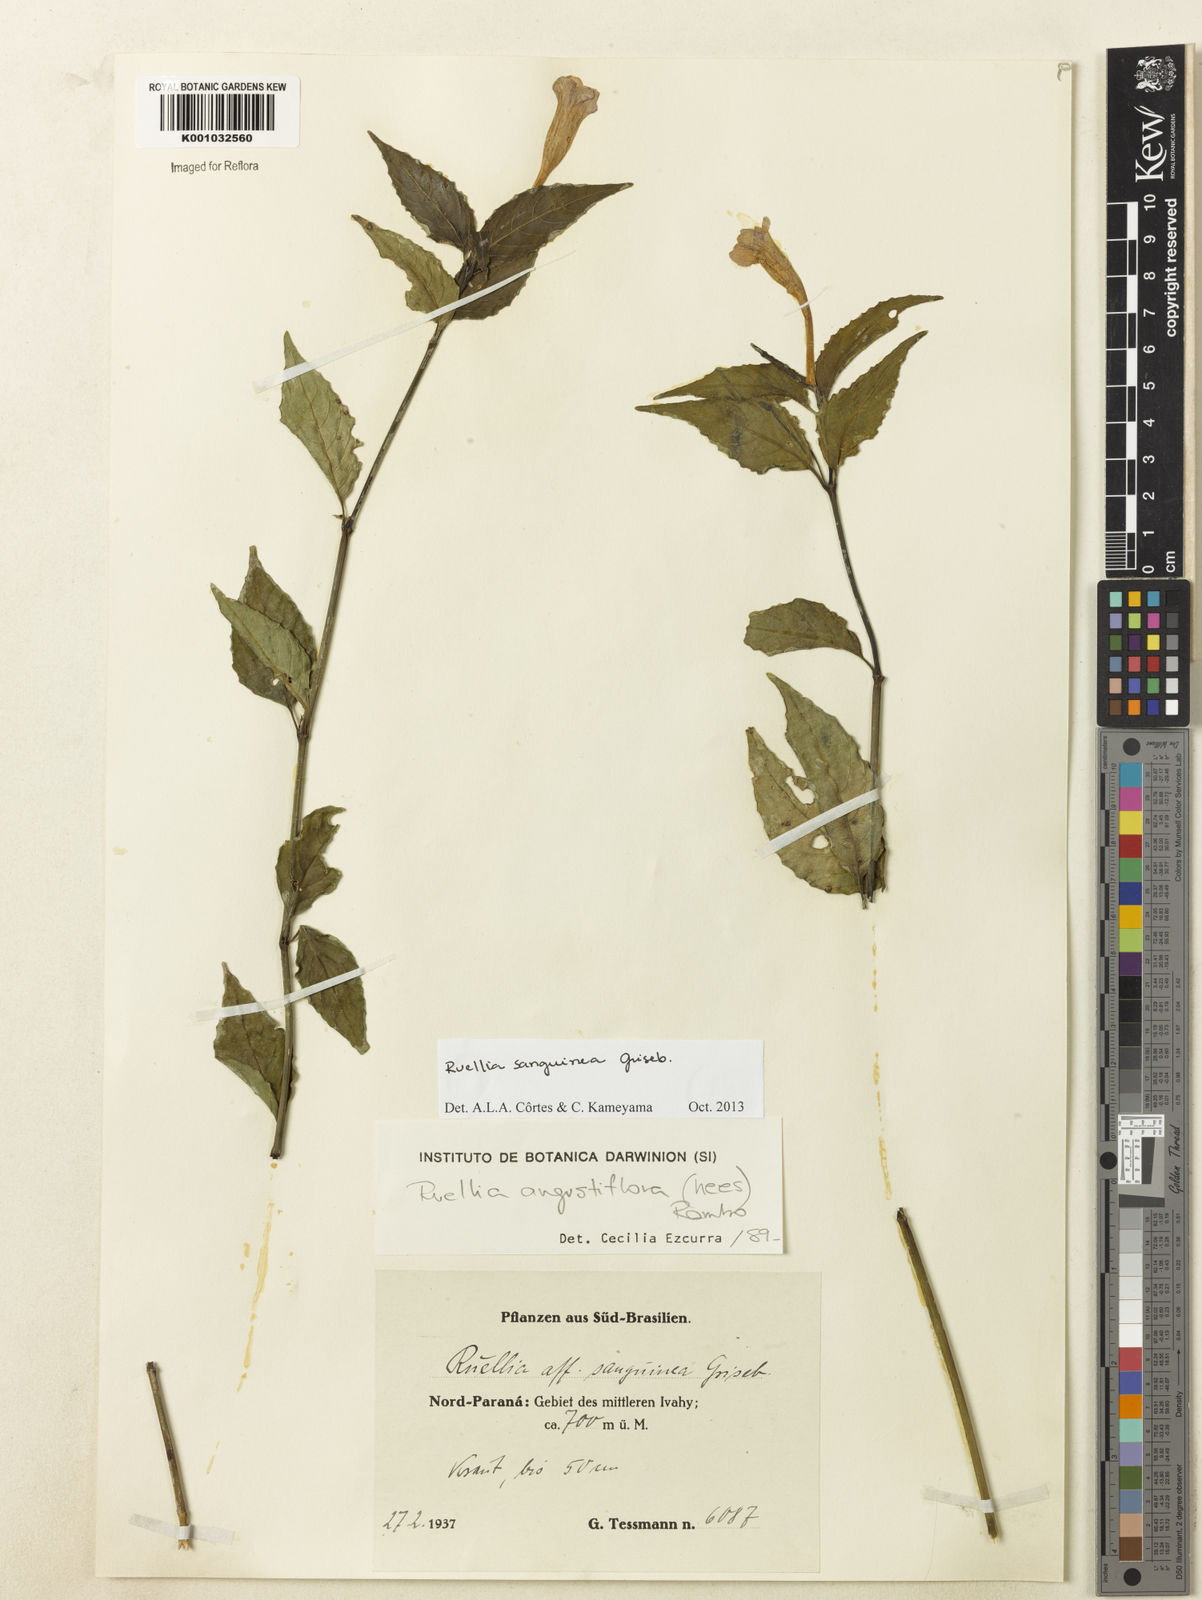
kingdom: Plantae
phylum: Tracheophyta
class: Magnoliopsida
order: Lamiales
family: Acanthaceae
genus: Ruellia
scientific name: Ruellia sanguinea
